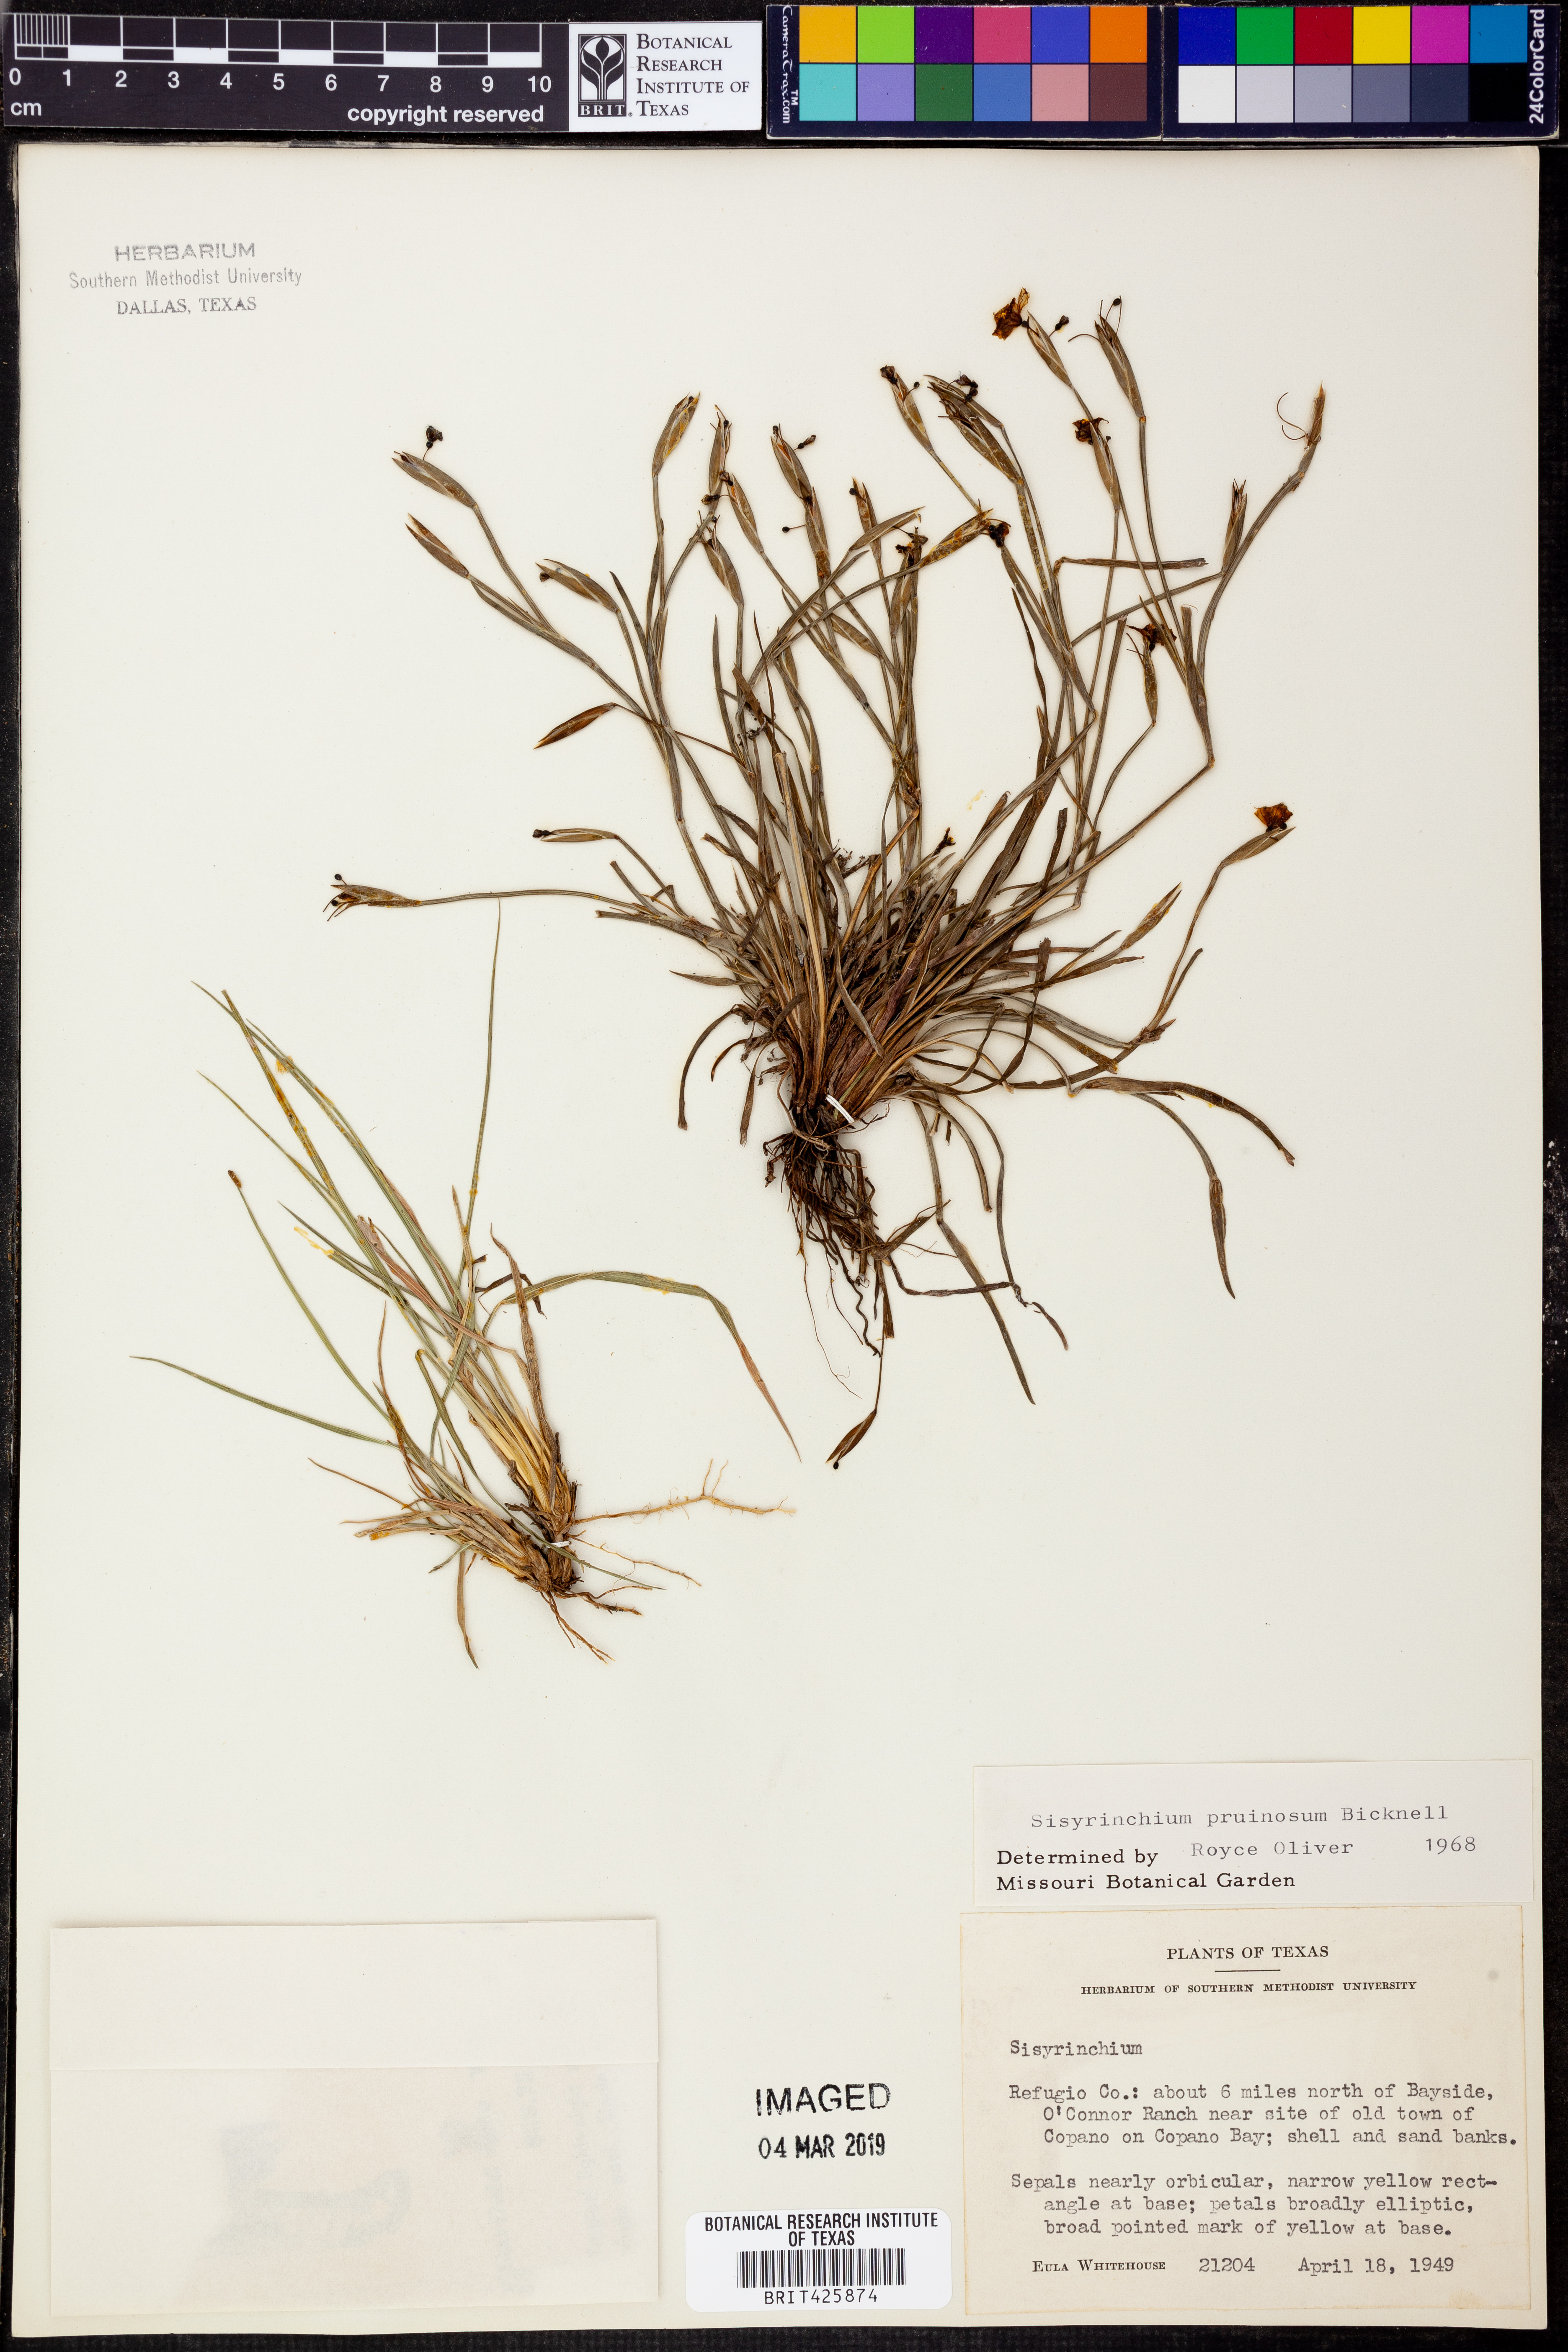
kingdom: Plantae
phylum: Tracheophyta
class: Liliopsida
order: Asparagales
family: Iridaceae
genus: Sisyrinchium
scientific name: Sisyrinchium pruinosum
